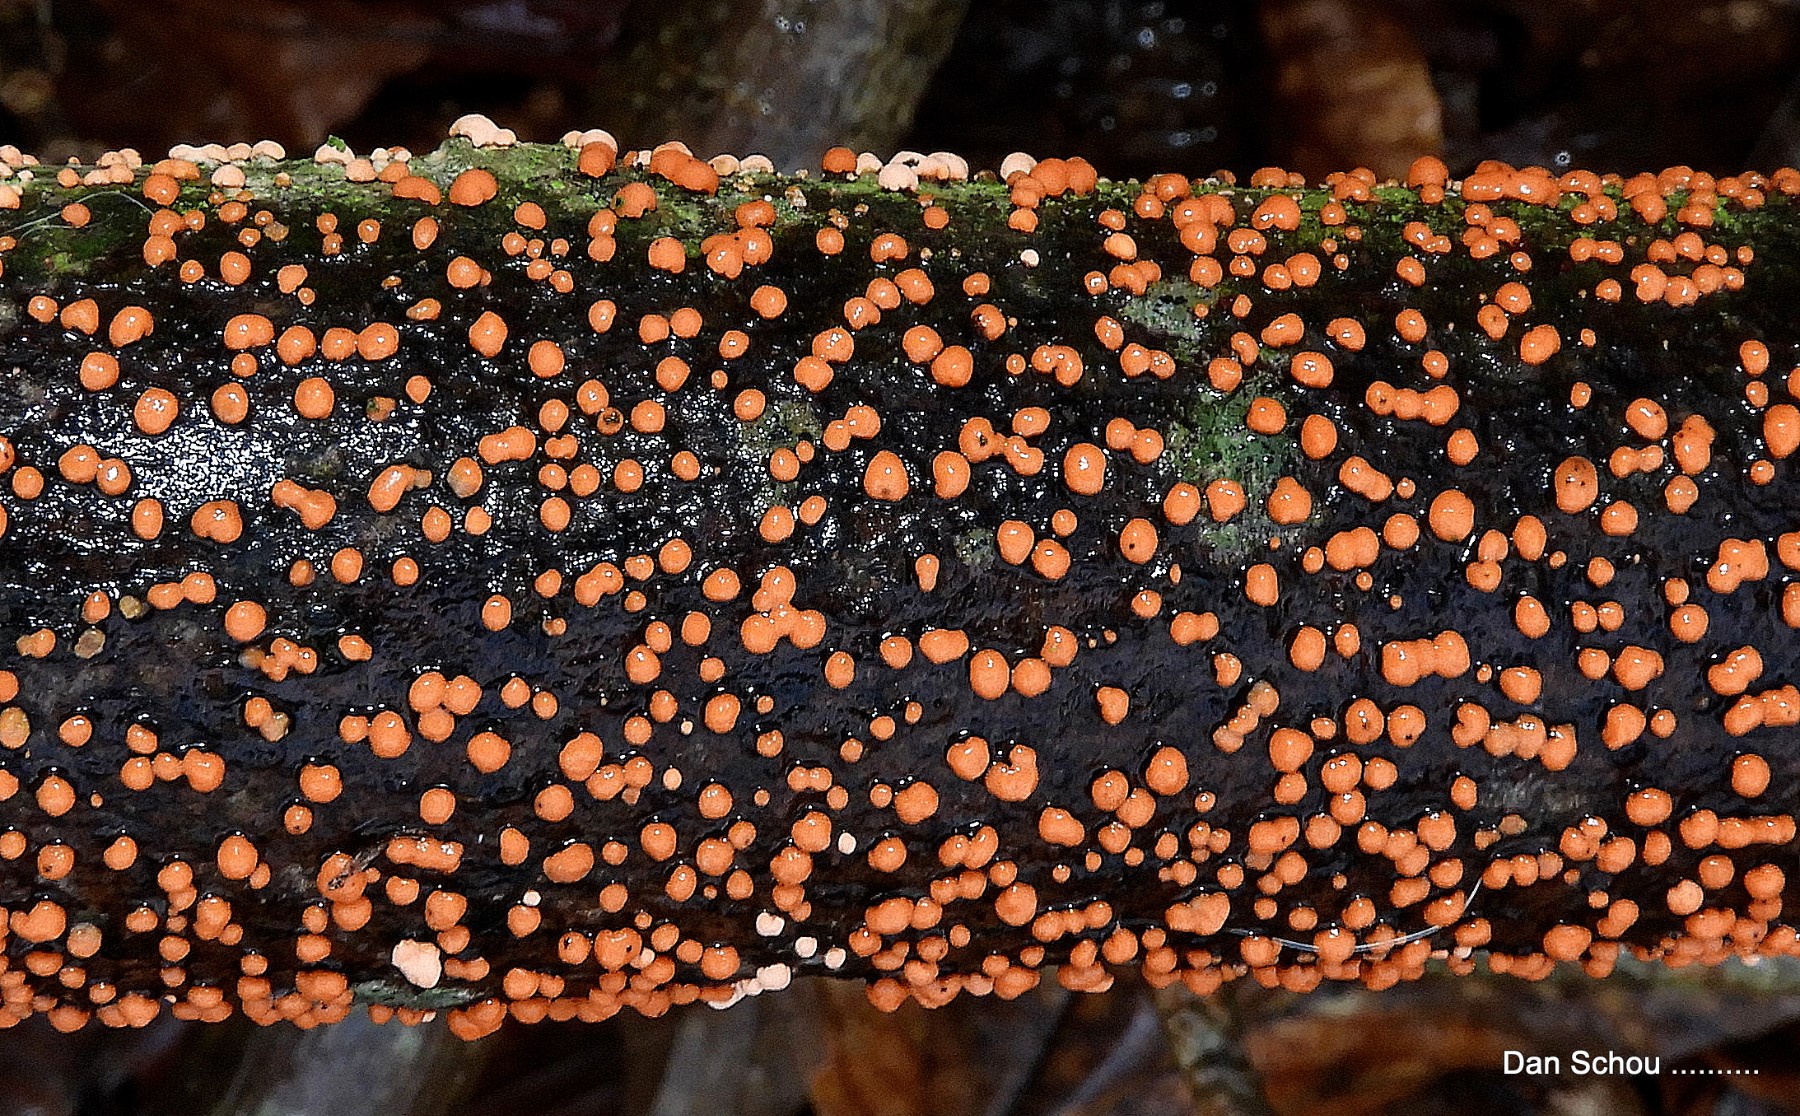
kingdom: Fungi
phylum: Ascomycota
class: Sordariomycetes
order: Hypocreales
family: Nectriaceae
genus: Nectria
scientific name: Nectria cinnabarina
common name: almindelig cinnobersvamp
